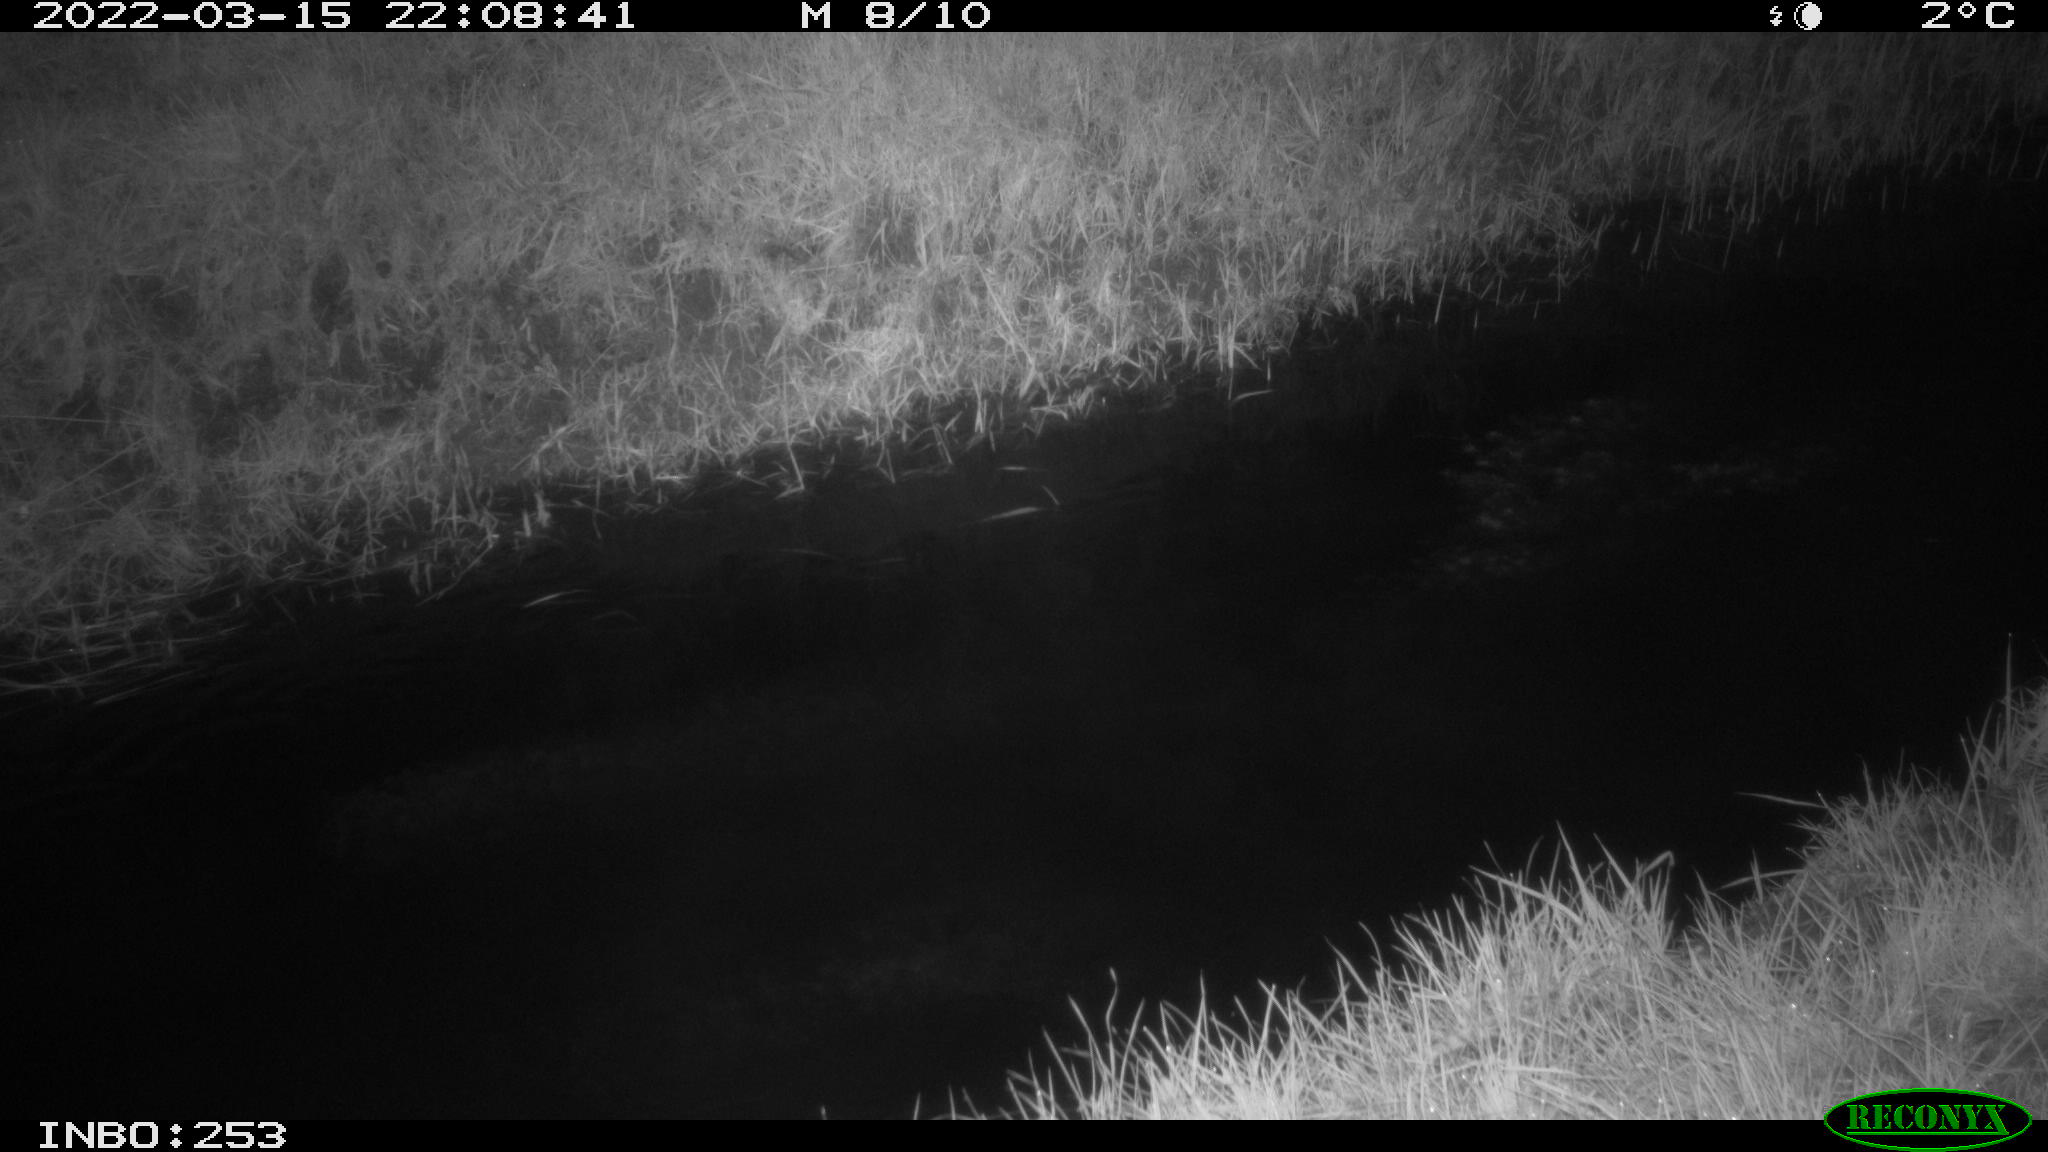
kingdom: Animalia
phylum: Chordata
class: Aves
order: Anseriformes
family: Anatidae
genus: Anas
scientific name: Anas platyrhynchos
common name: Mallard
